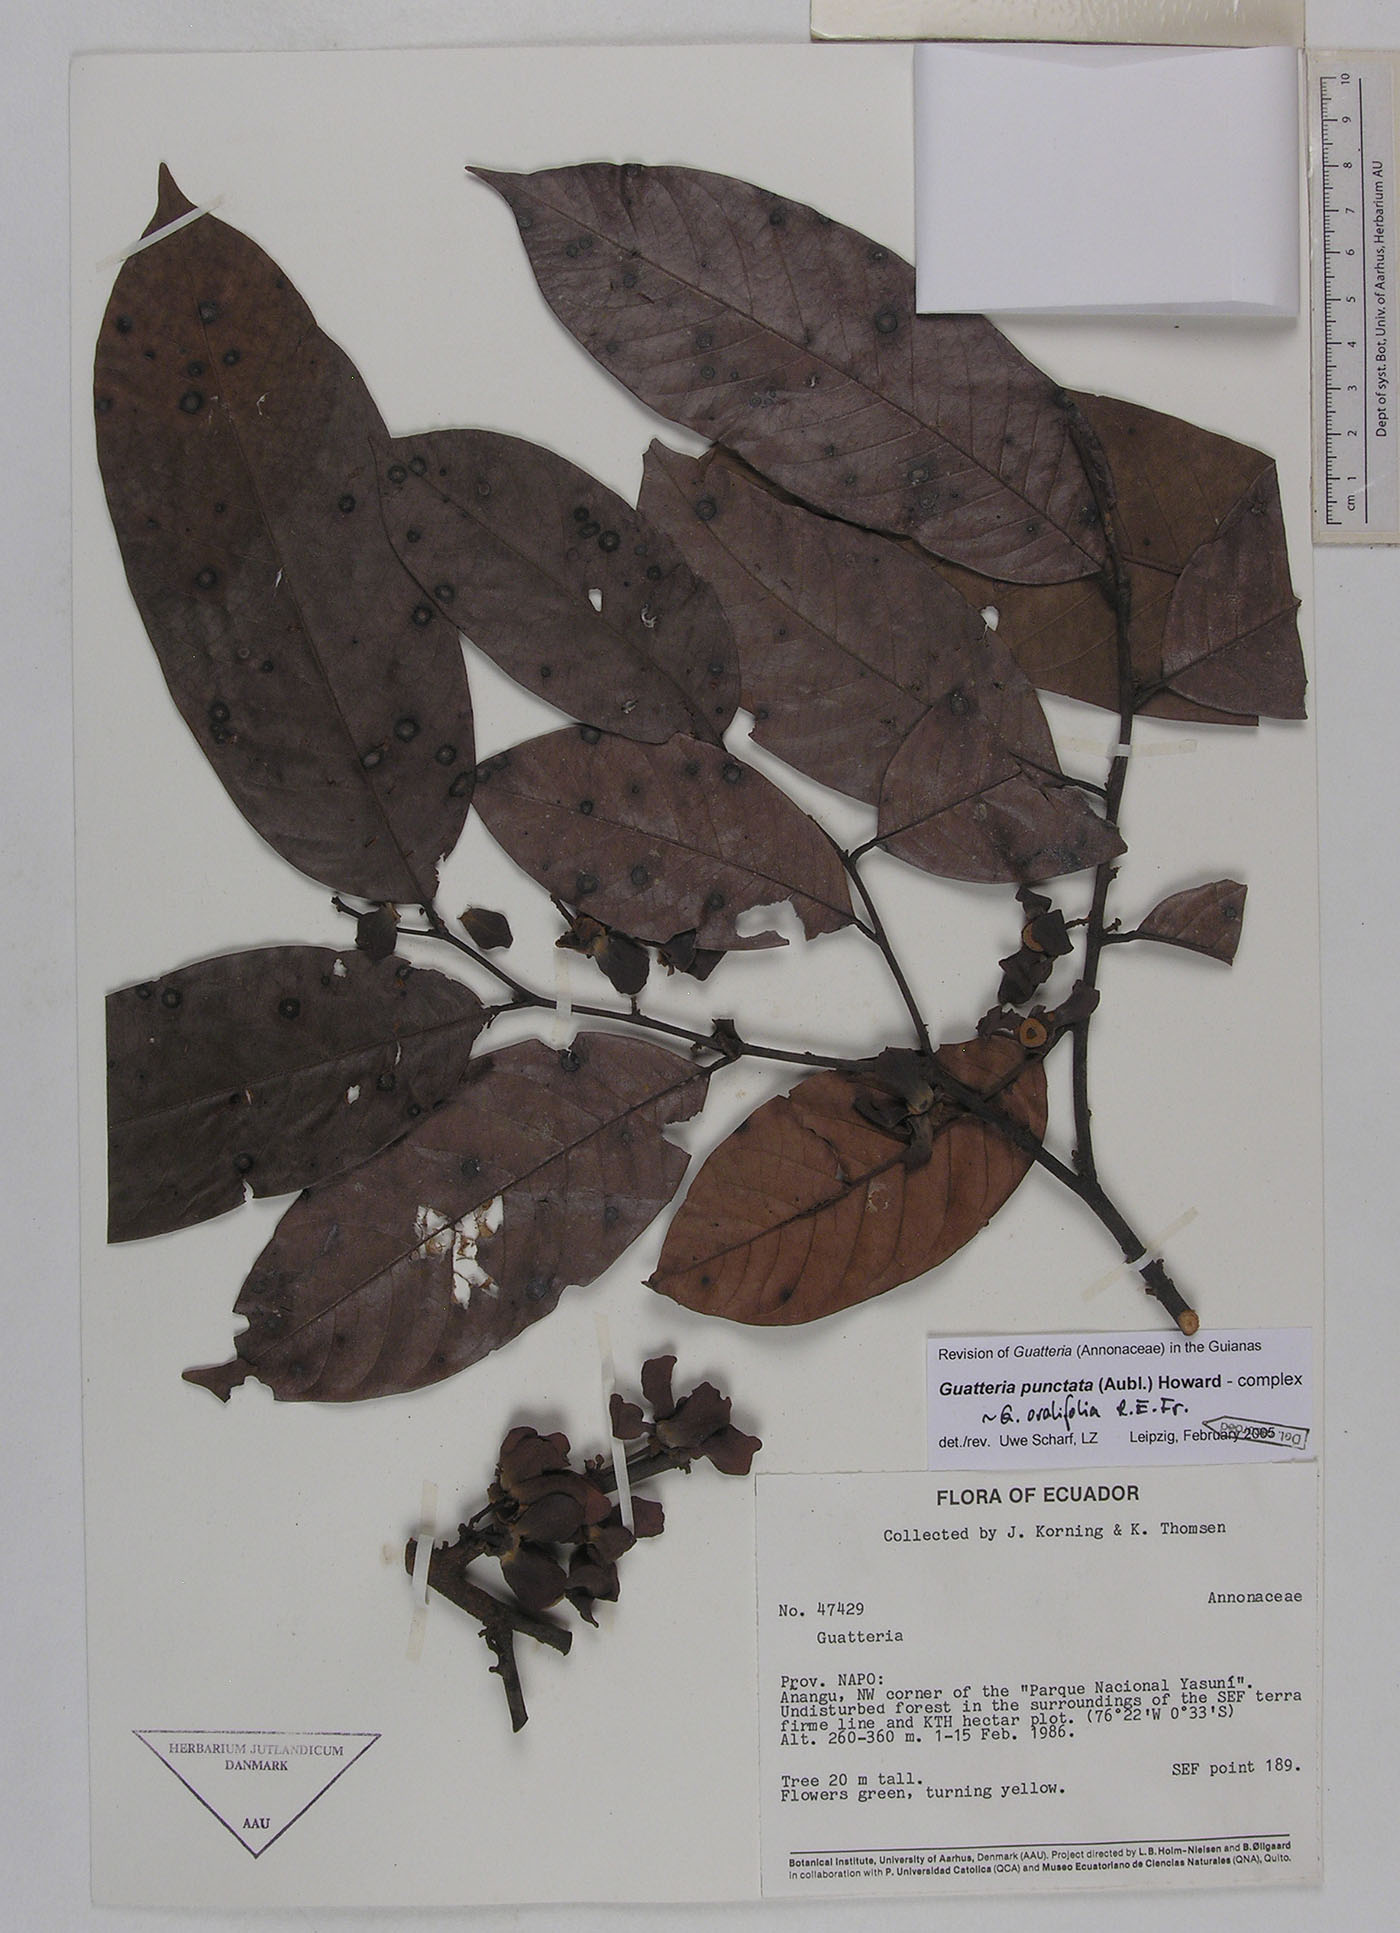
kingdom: Plantae
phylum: Tracheophyta
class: Magnoliopsida
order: Magnoliales
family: Annonaceae
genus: Guatteria
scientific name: Guatteria punctata
